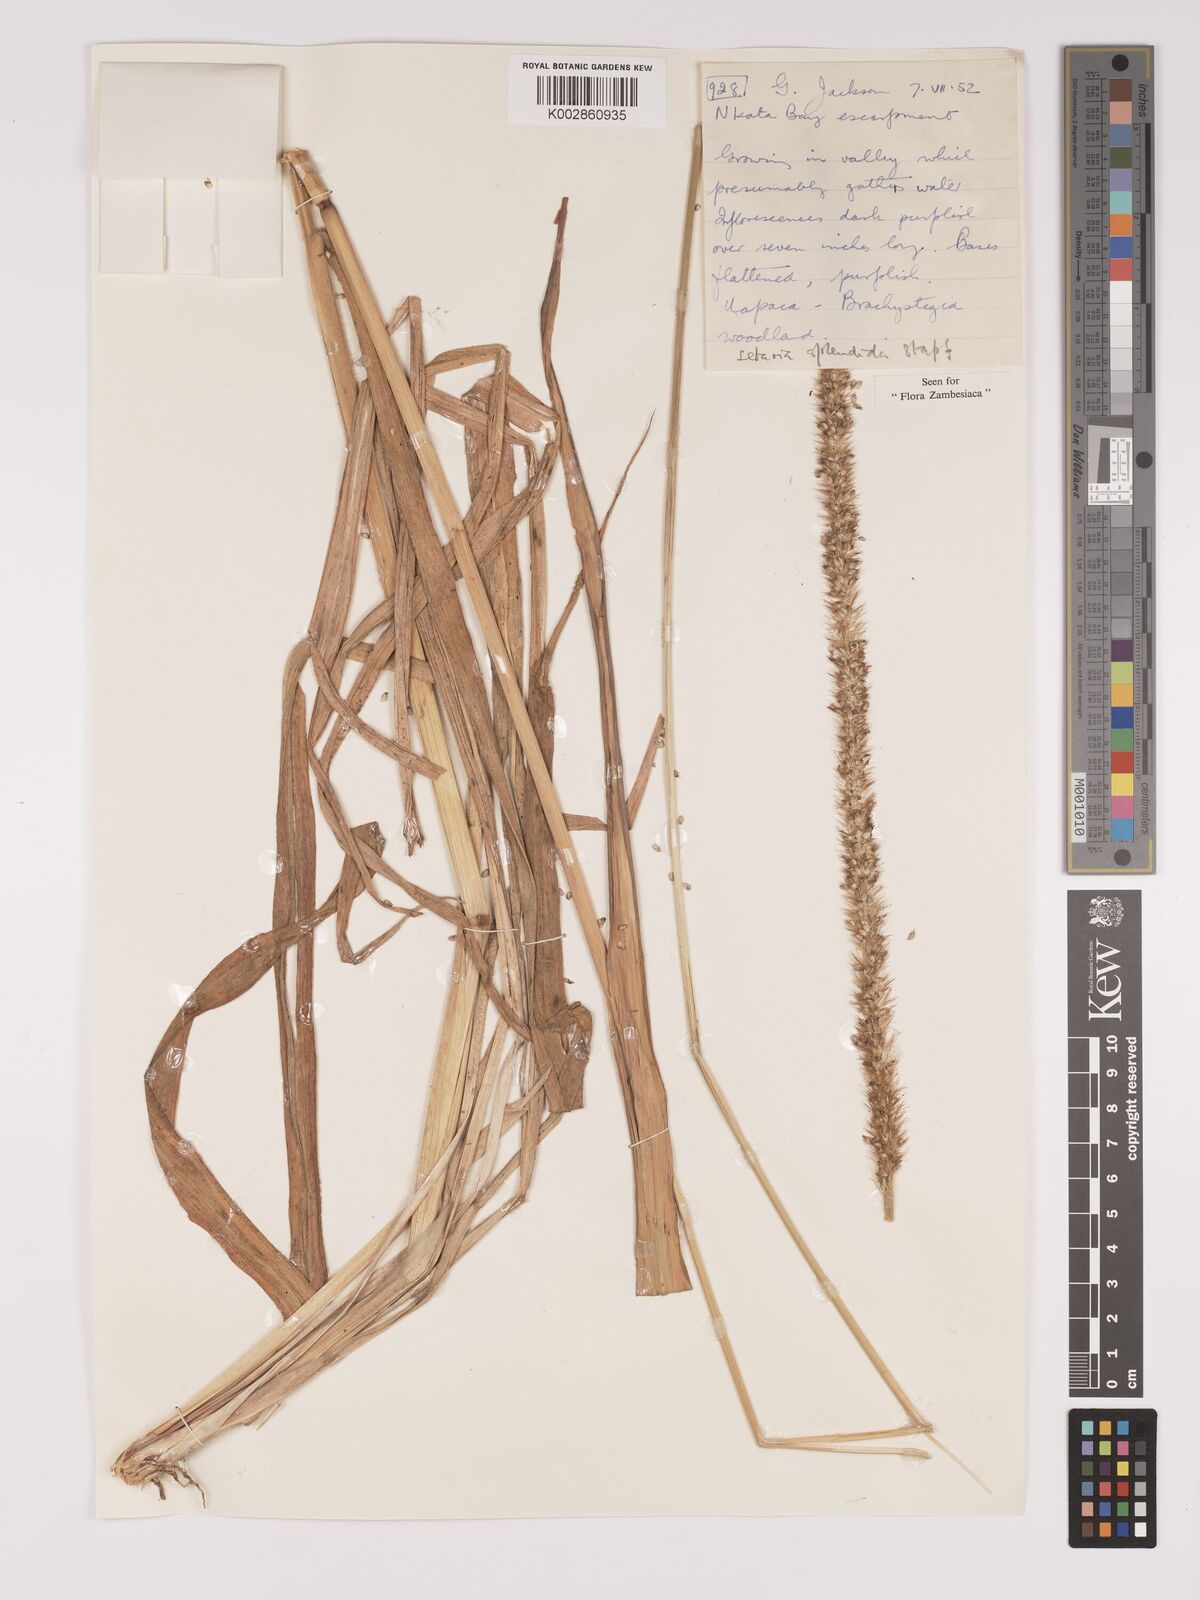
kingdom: Plantae
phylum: Tracheophyta
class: Liliopsida
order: Poales
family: Poaceae
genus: Setaria
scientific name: Setaria sphacelata
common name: African bristlegrass
